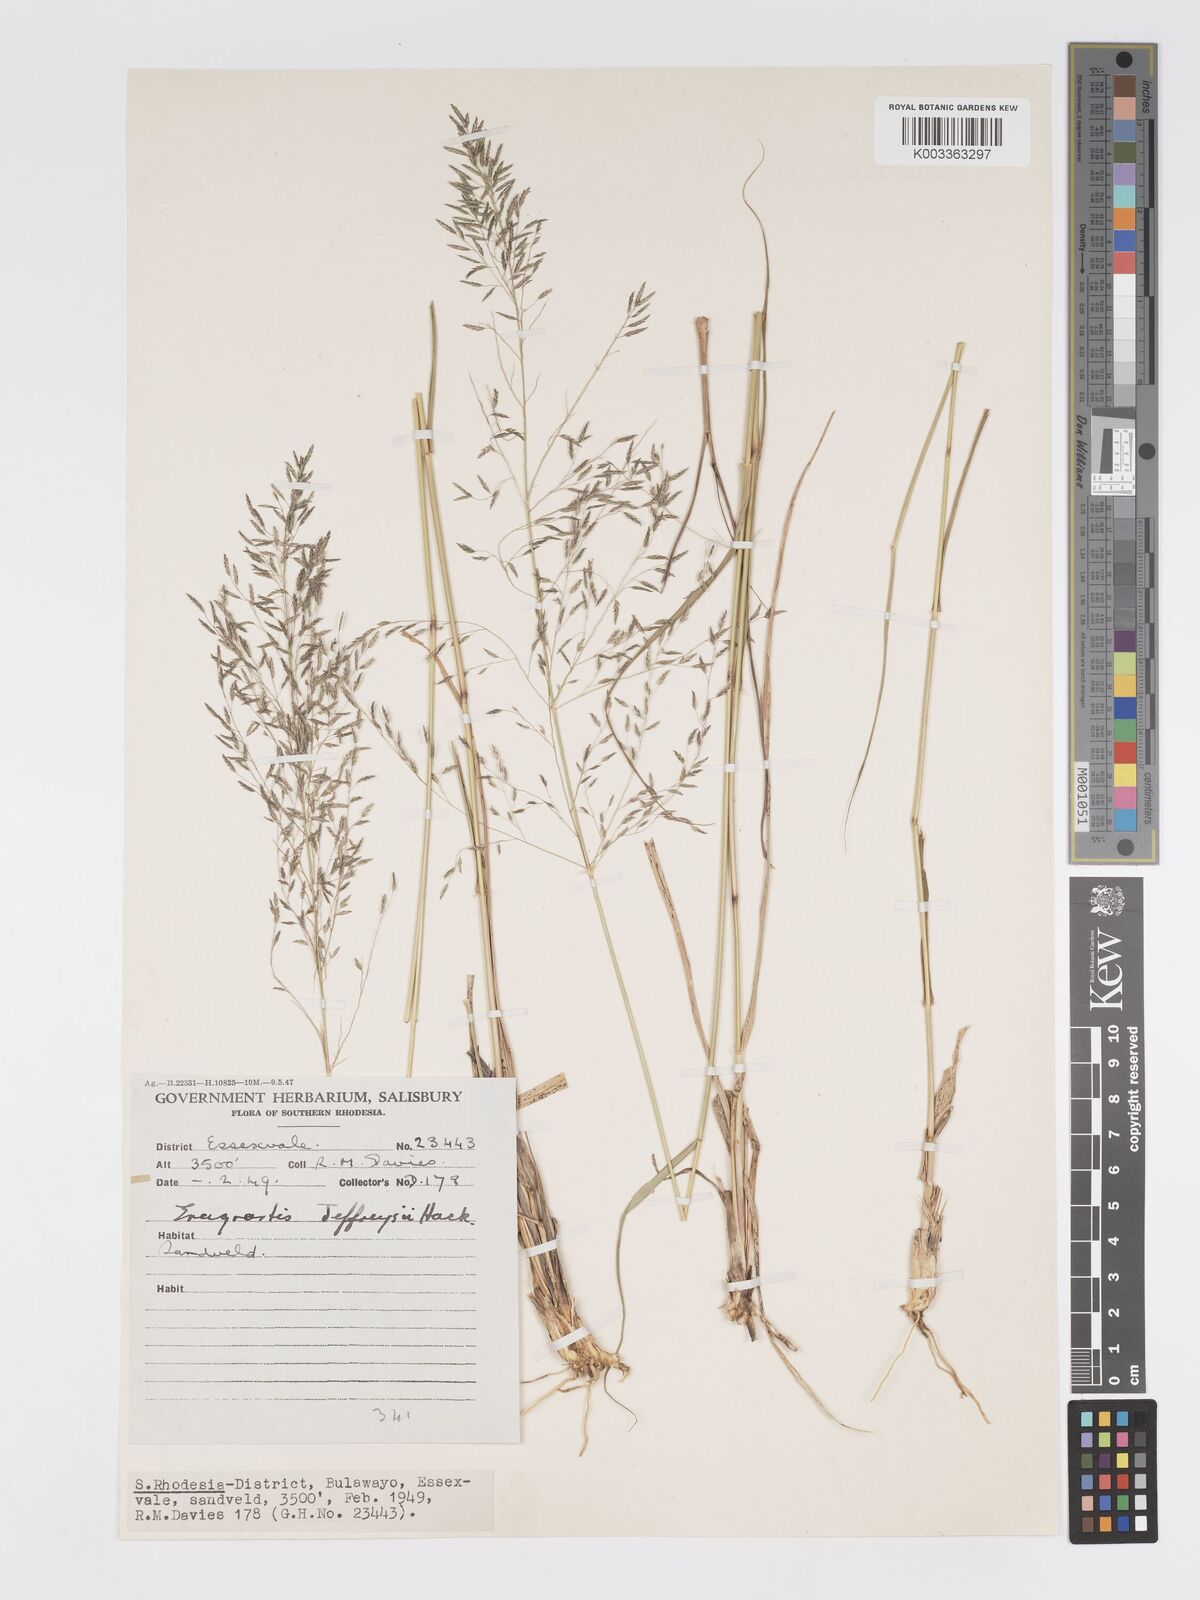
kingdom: Plantae
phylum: Tracheophyta
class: Liliopsida
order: Poales
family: Poaceae
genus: Eragrostis
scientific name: Eragrostis curvula
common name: African love-grass
